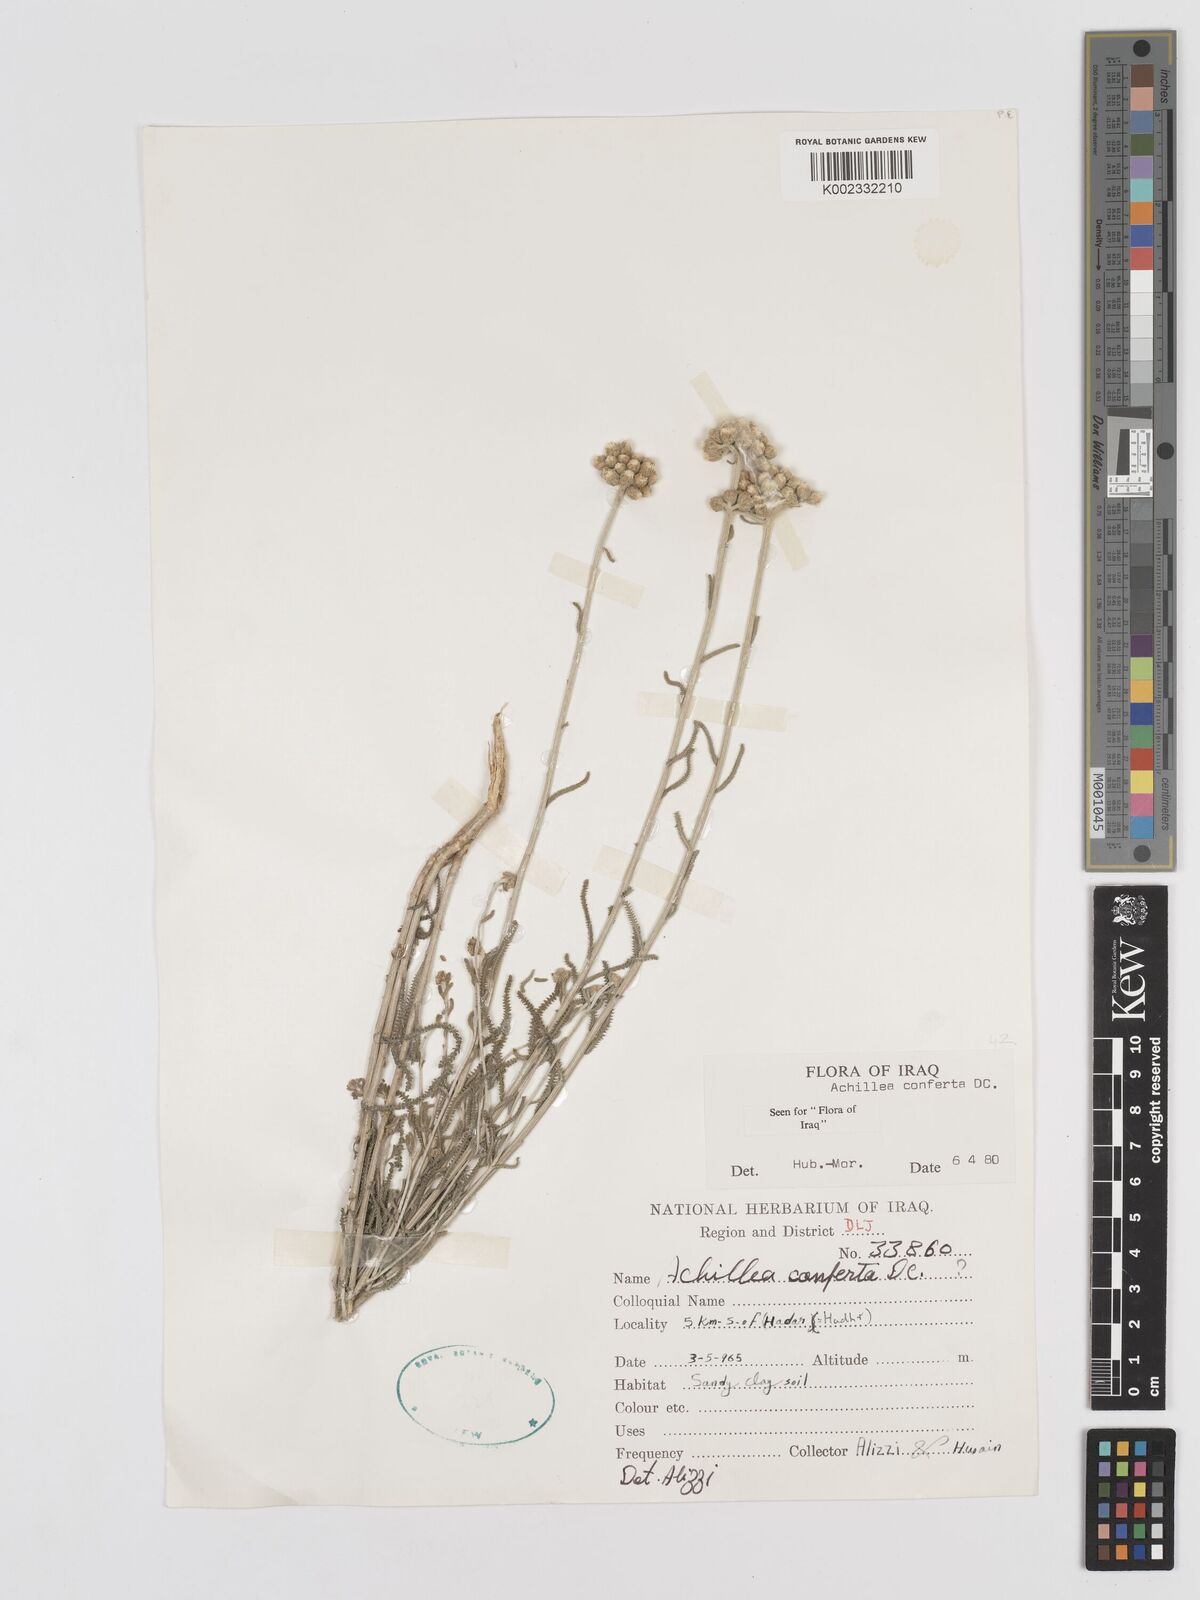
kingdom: Plantae
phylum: Tracheophyta
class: Magnoliopsida
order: Asterales
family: Asteraceae
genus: Achillea
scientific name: Achillea conferta
